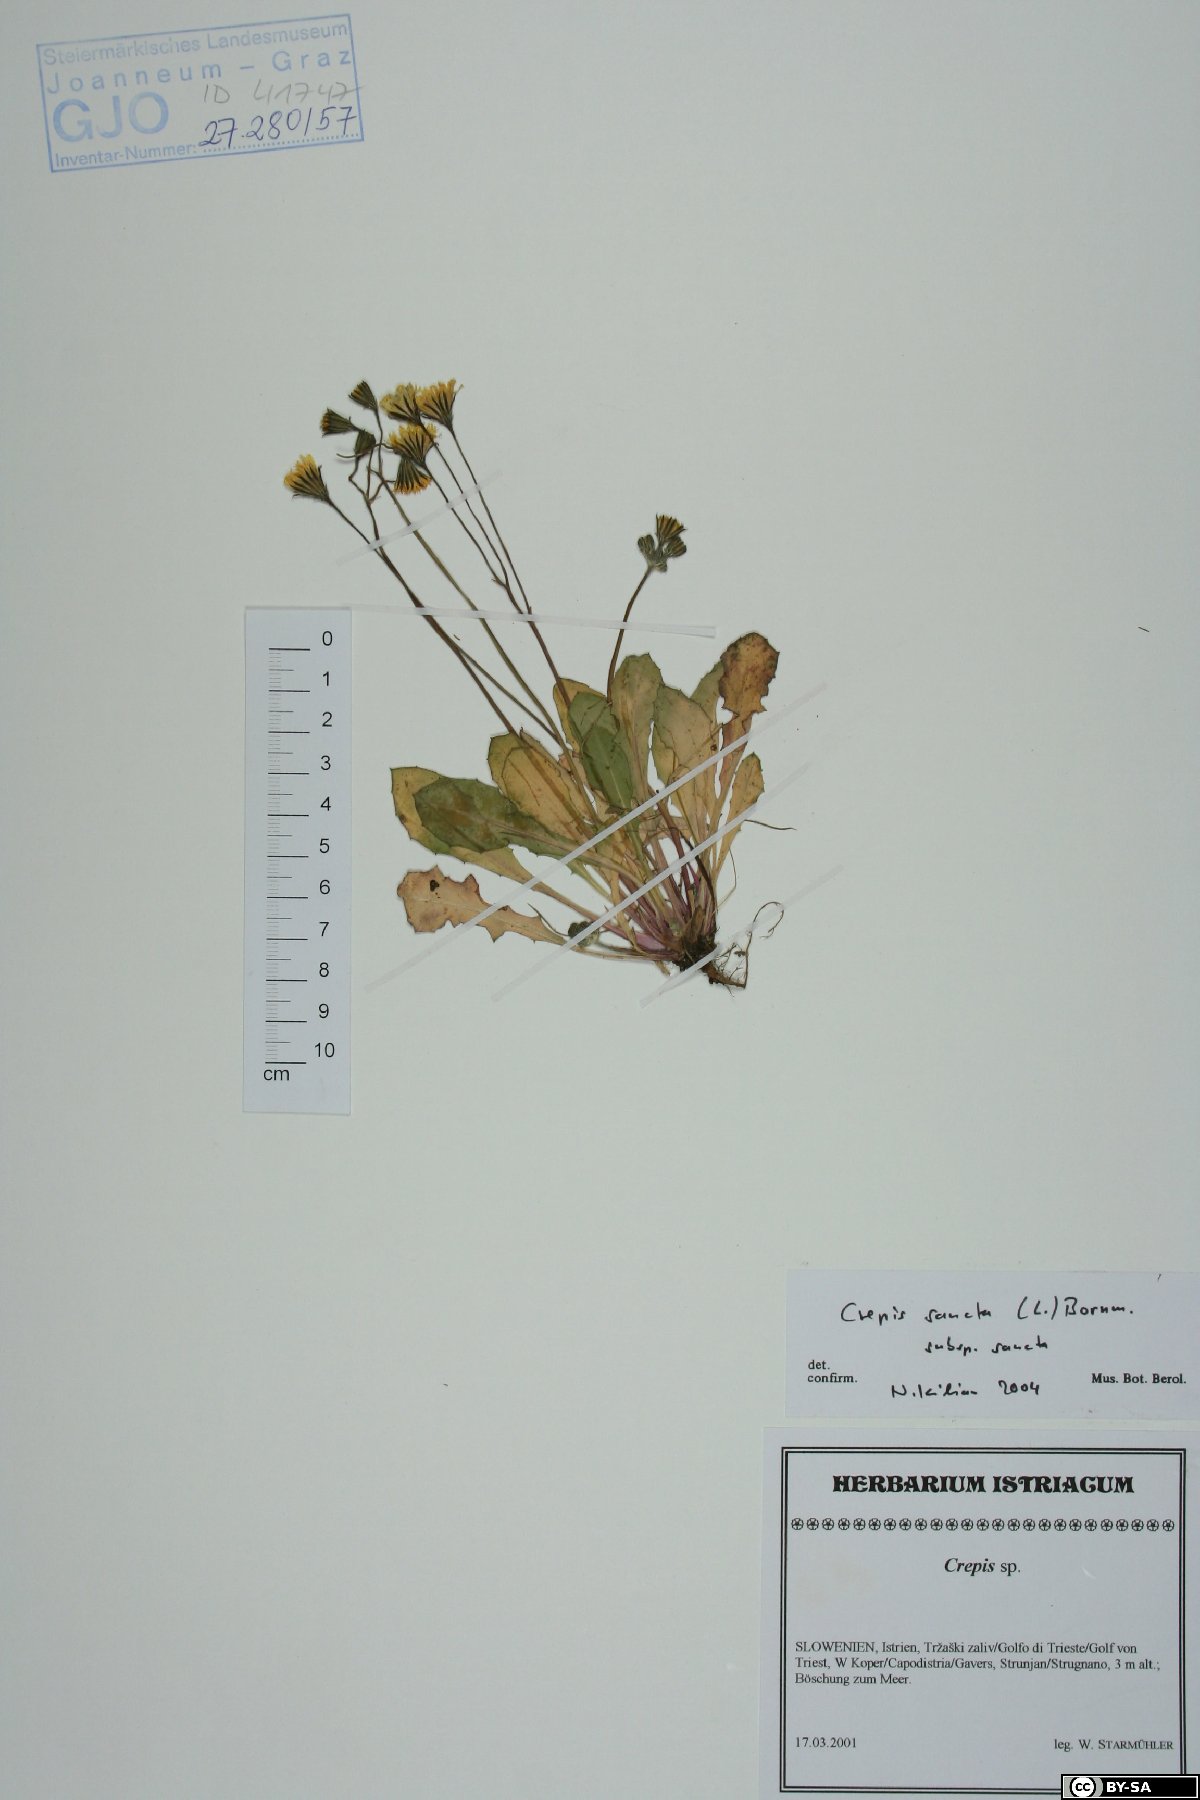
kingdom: Plantae
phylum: Tracheophyta
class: Magnoliopsida
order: Asterales
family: Asteraceae
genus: Crepis
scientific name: Crepis sancta
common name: Hawk's-beard
